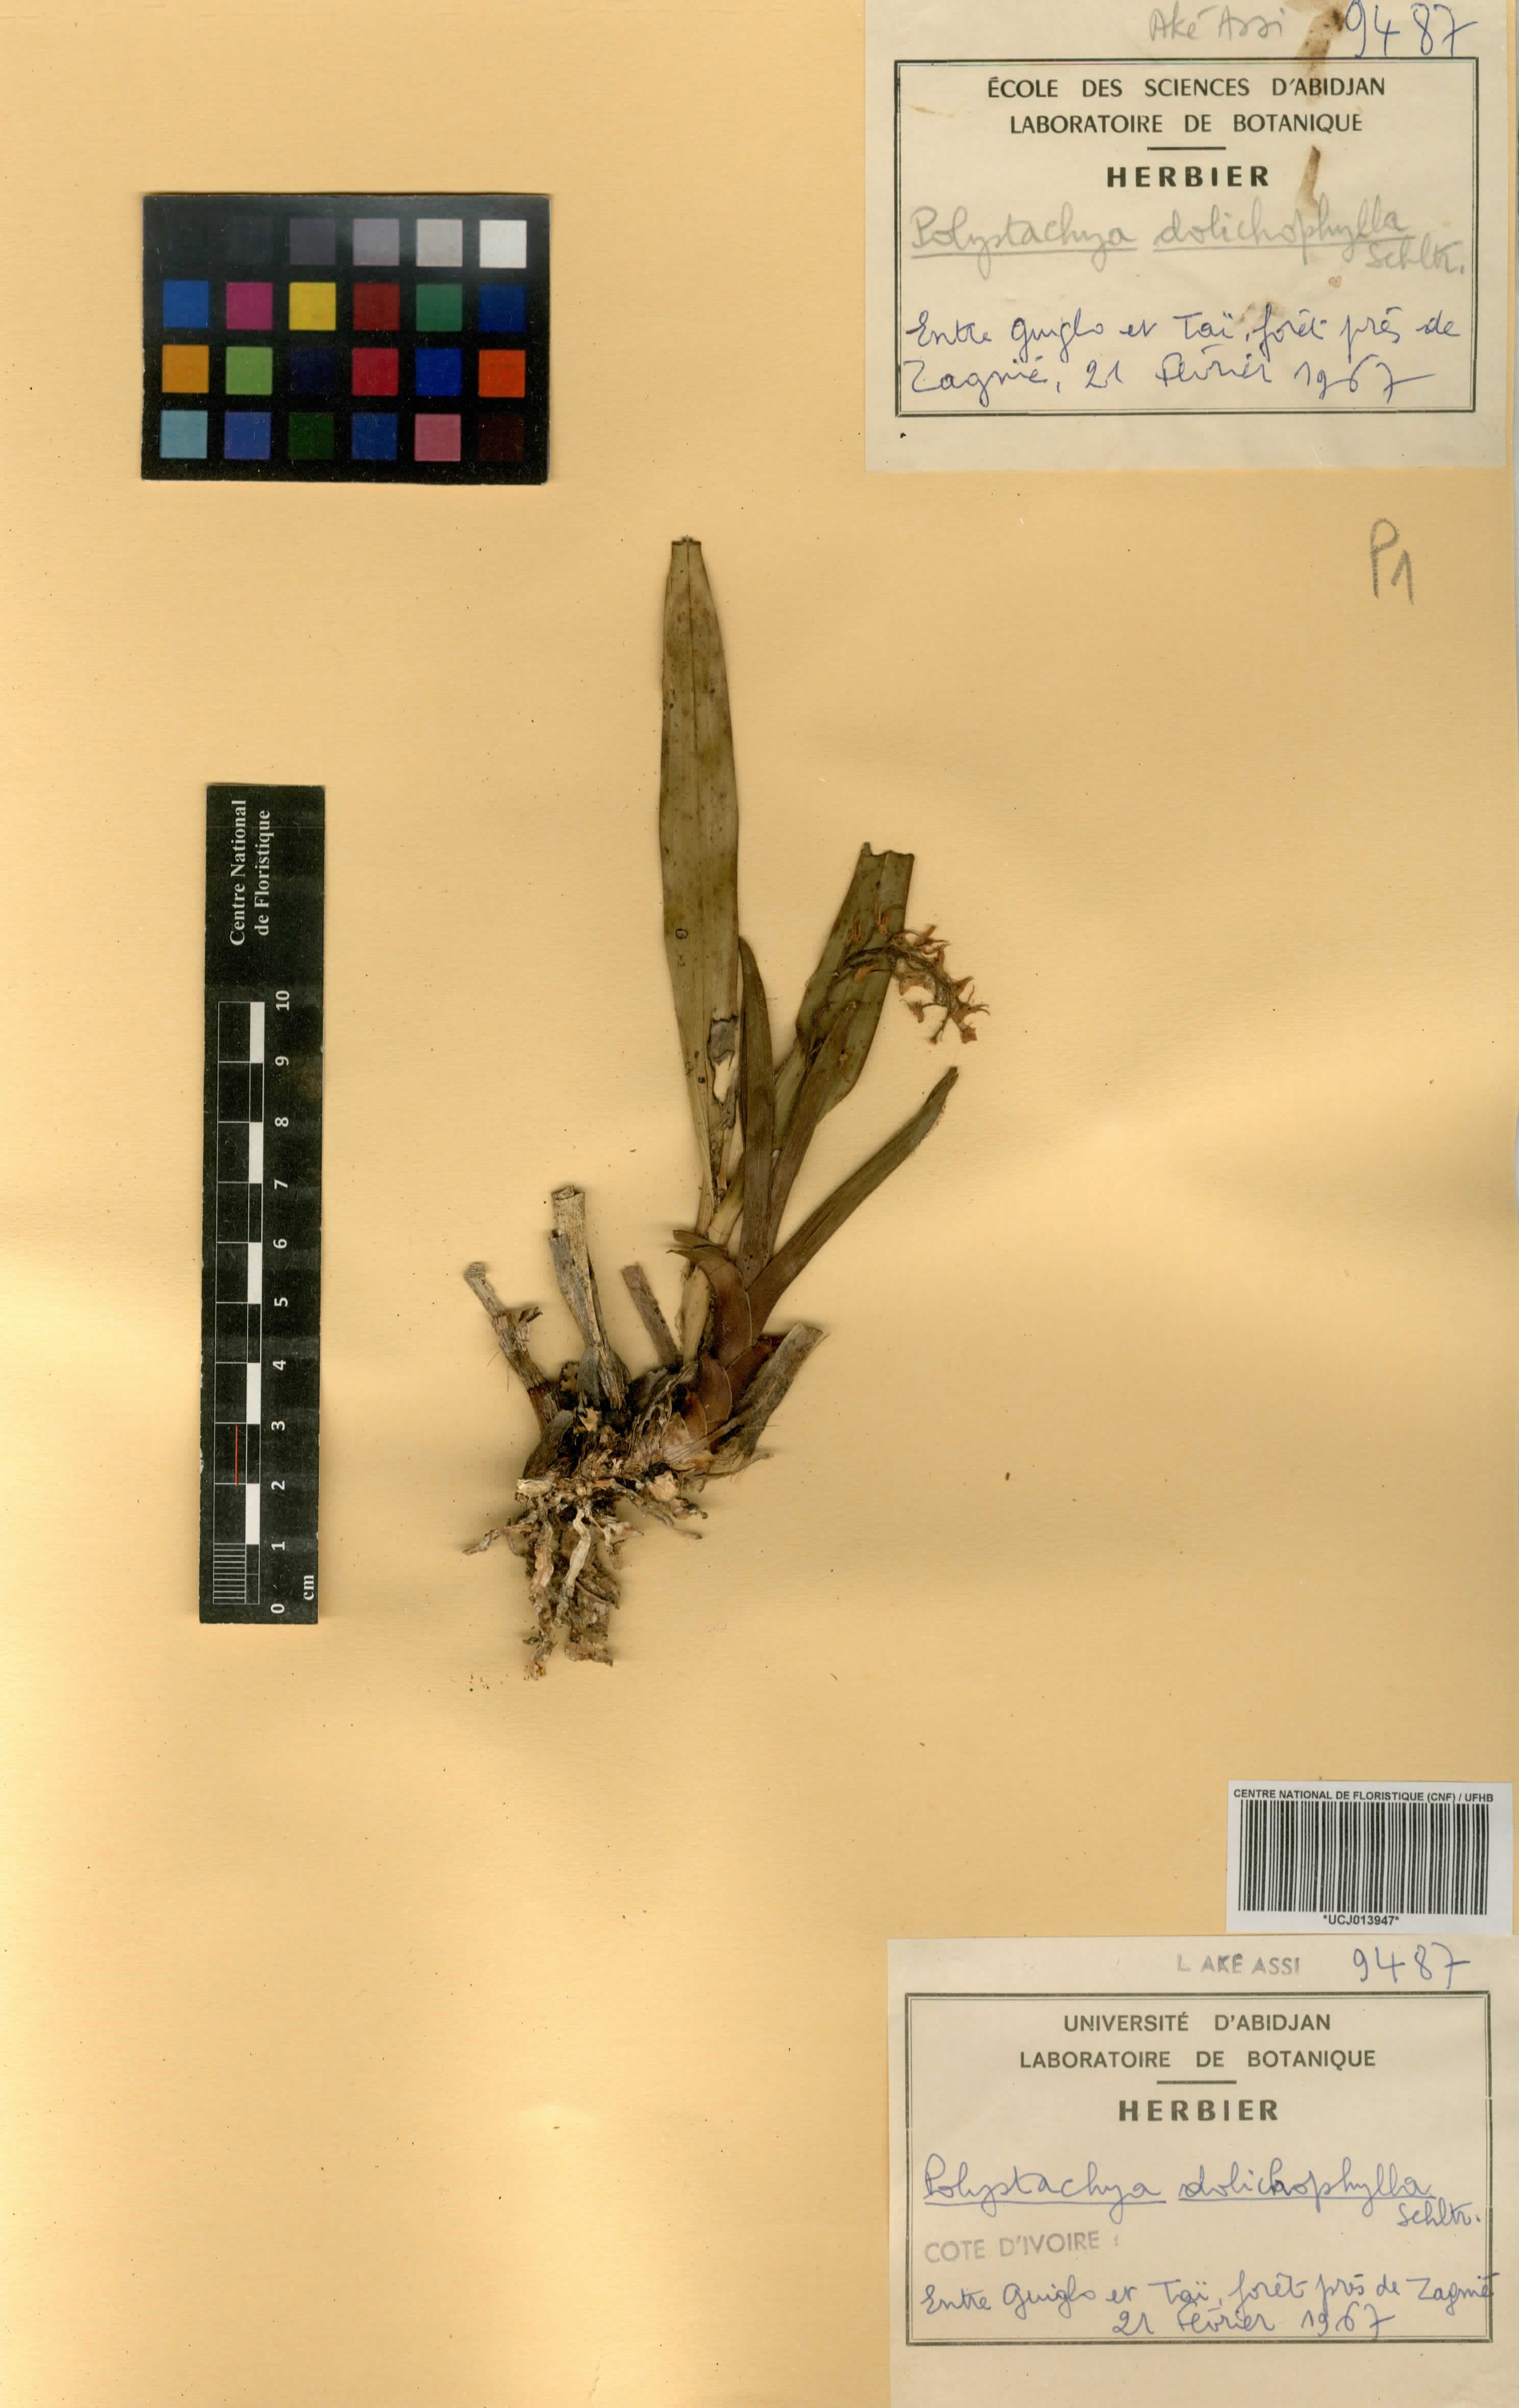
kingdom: Plantae
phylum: Tracheophyta
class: Liliopsida
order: Asparagales
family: Orchidaceae
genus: Polystachya
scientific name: Polystachya dolichophylla
